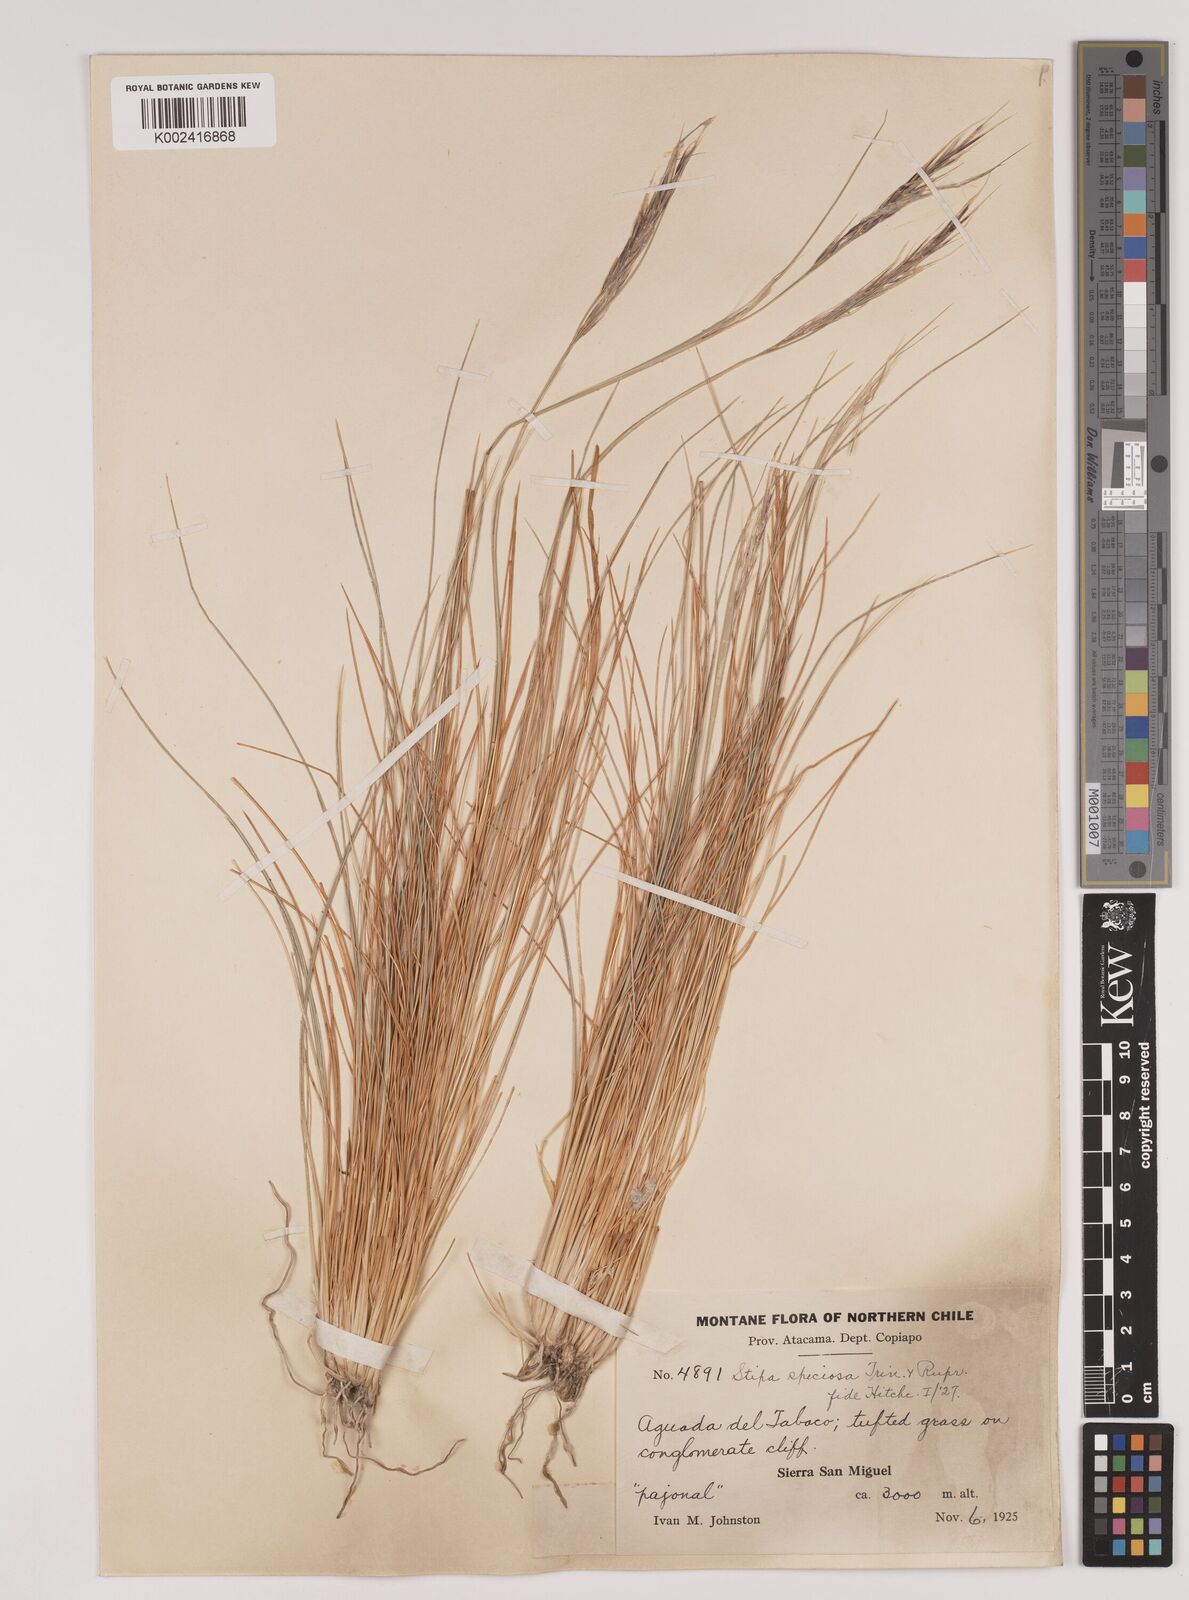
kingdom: Plantae
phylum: Tracheophyta
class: Liliopsida
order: Poales
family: Poaceae
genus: Pappostipa
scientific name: Pappostipa speciosa
